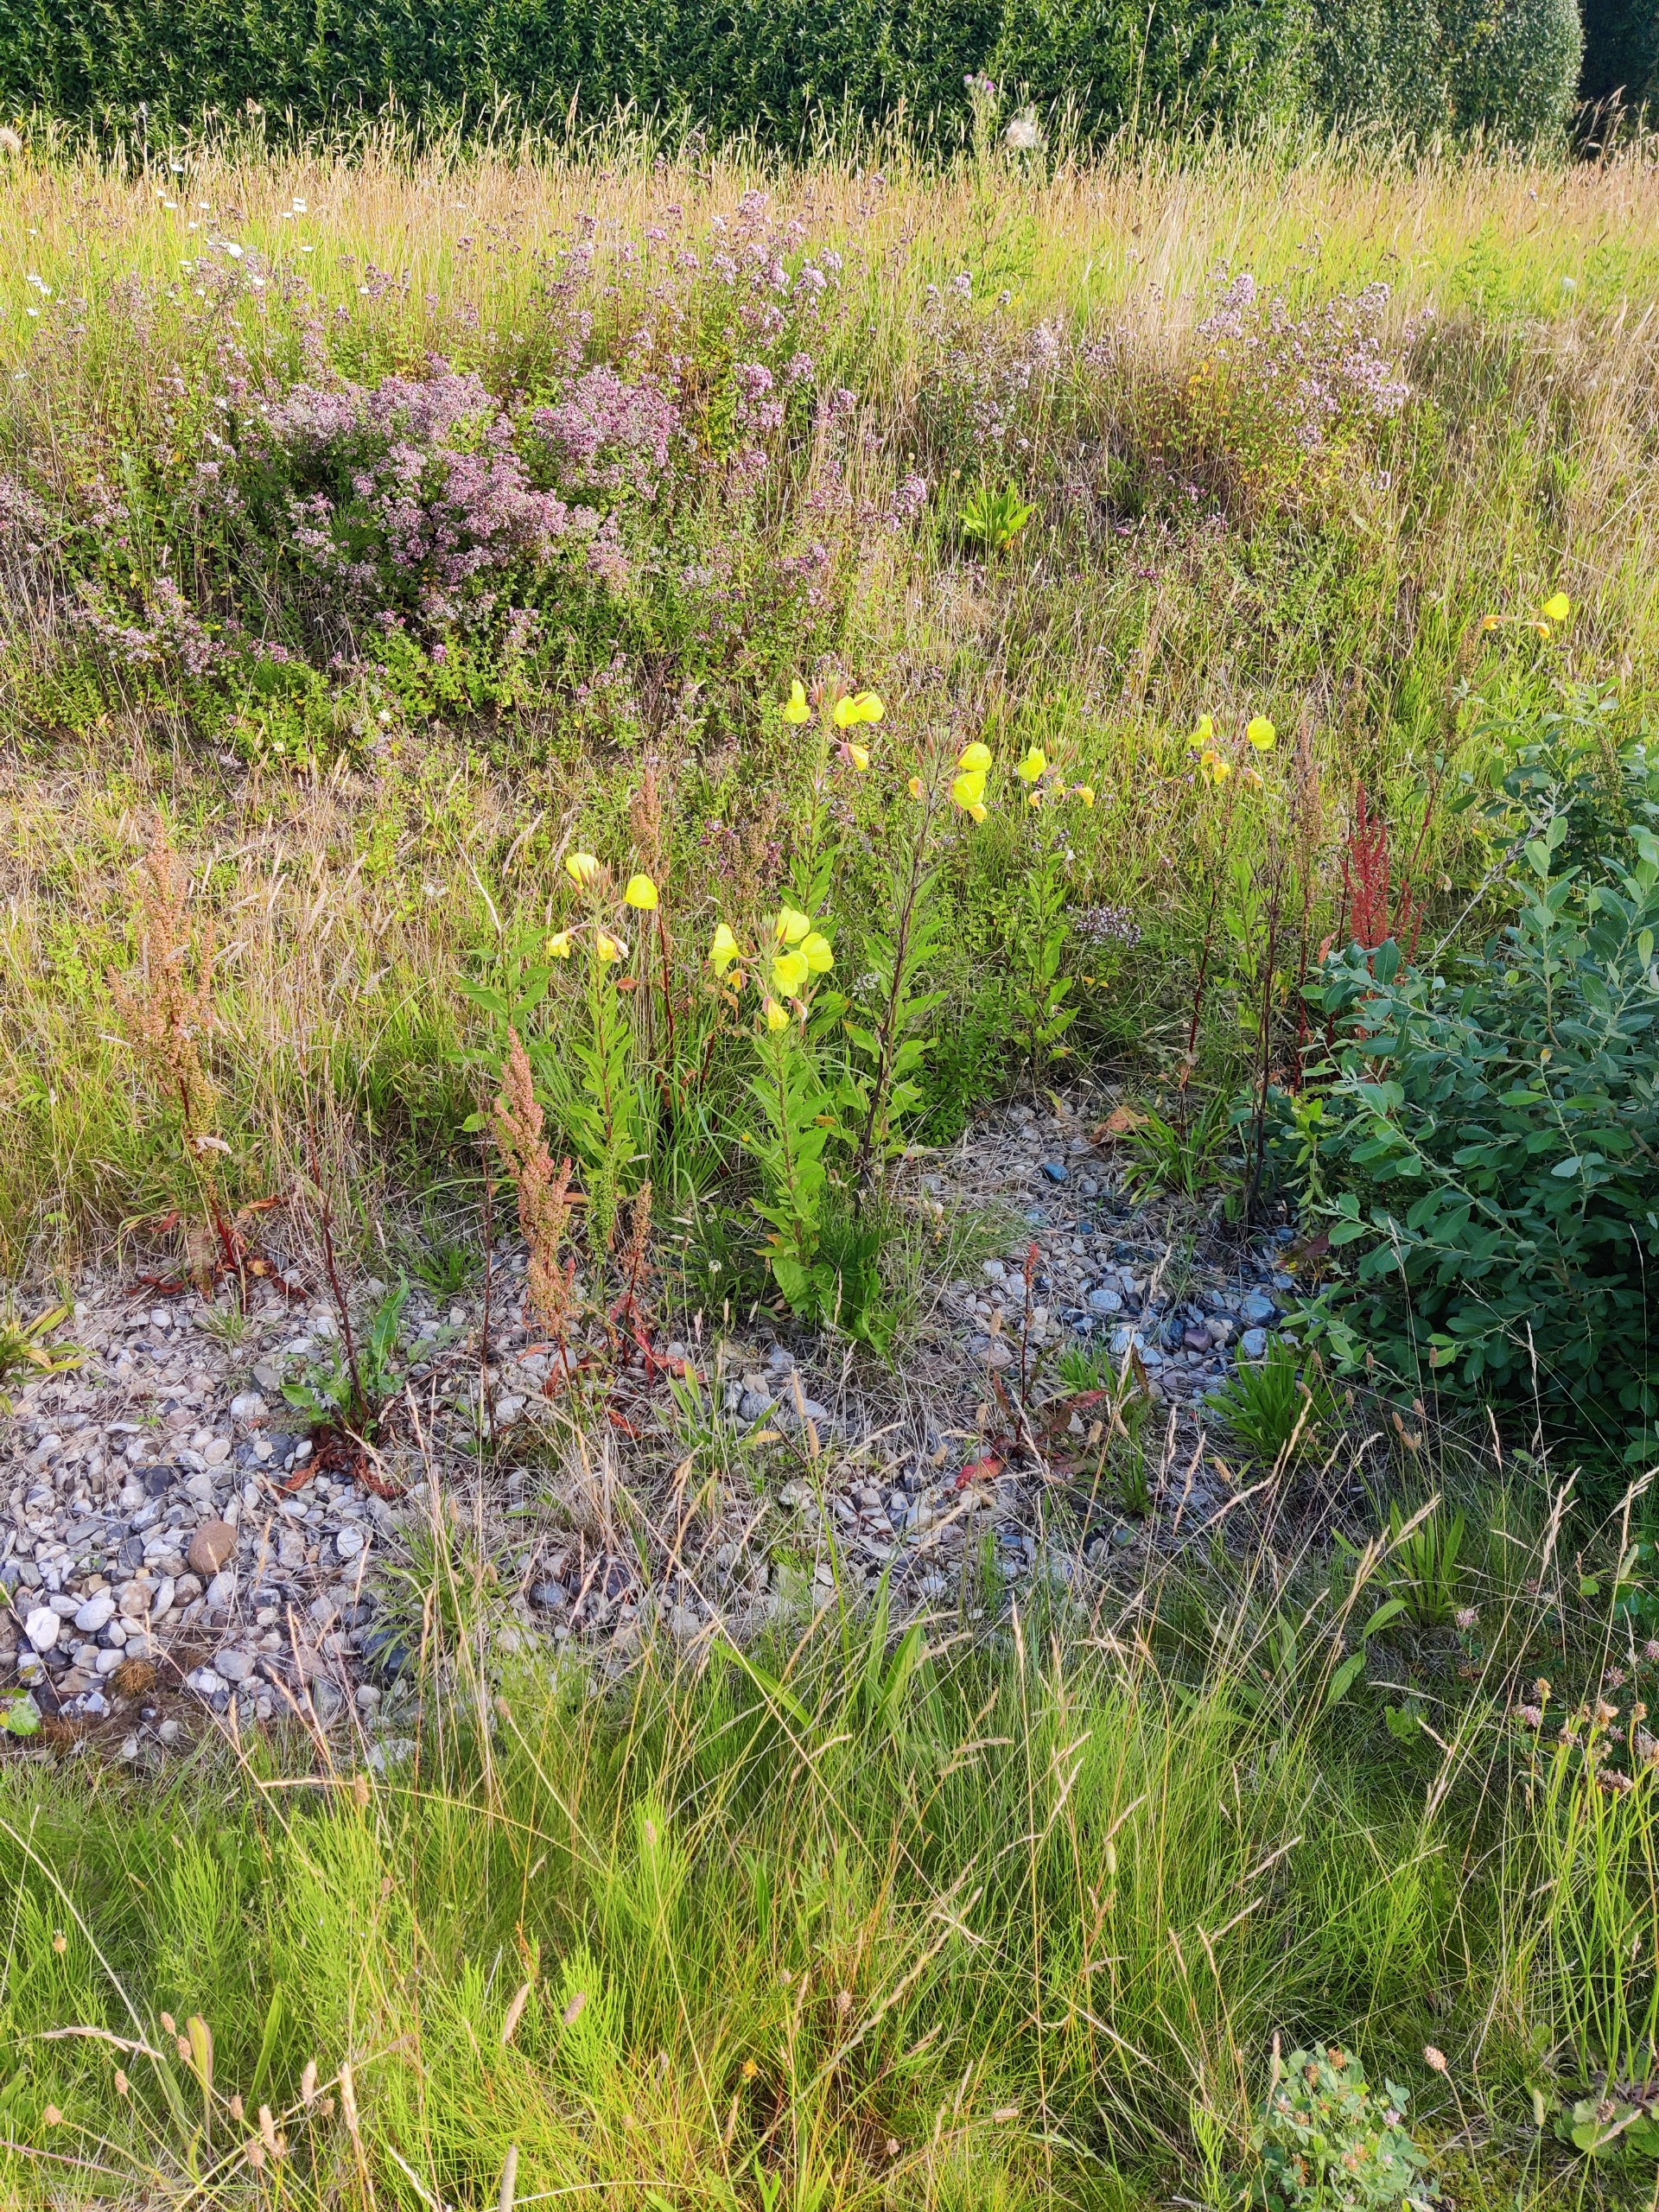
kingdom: Plantae
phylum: Tracheophyta
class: Magnoliopsida
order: Myrtales
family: Onagraceae
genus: Oenothera
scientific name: Oenothera glazioviana
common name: Kæmpe-natlys
